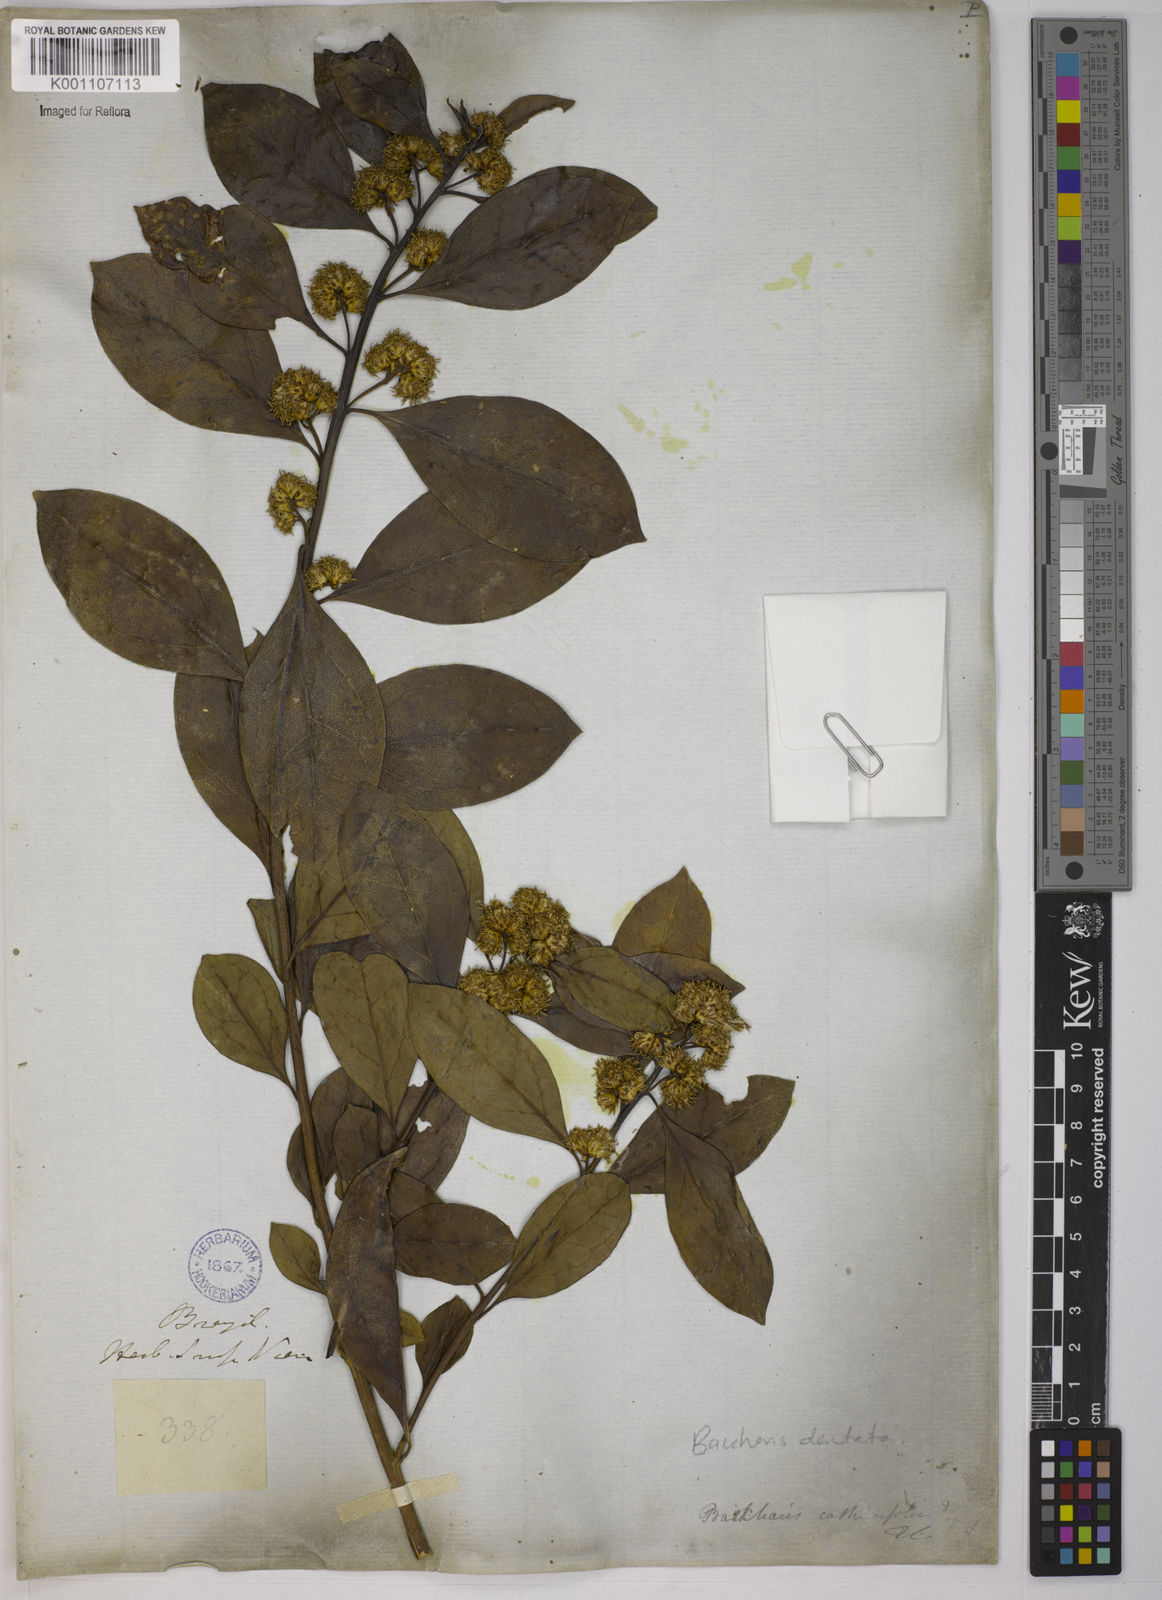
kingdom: Plantae
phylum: Tracheophyta
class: Magnoliopsida
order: Asterales
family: Asteraceae
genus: Baccharis
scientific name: Baccharis dentata
